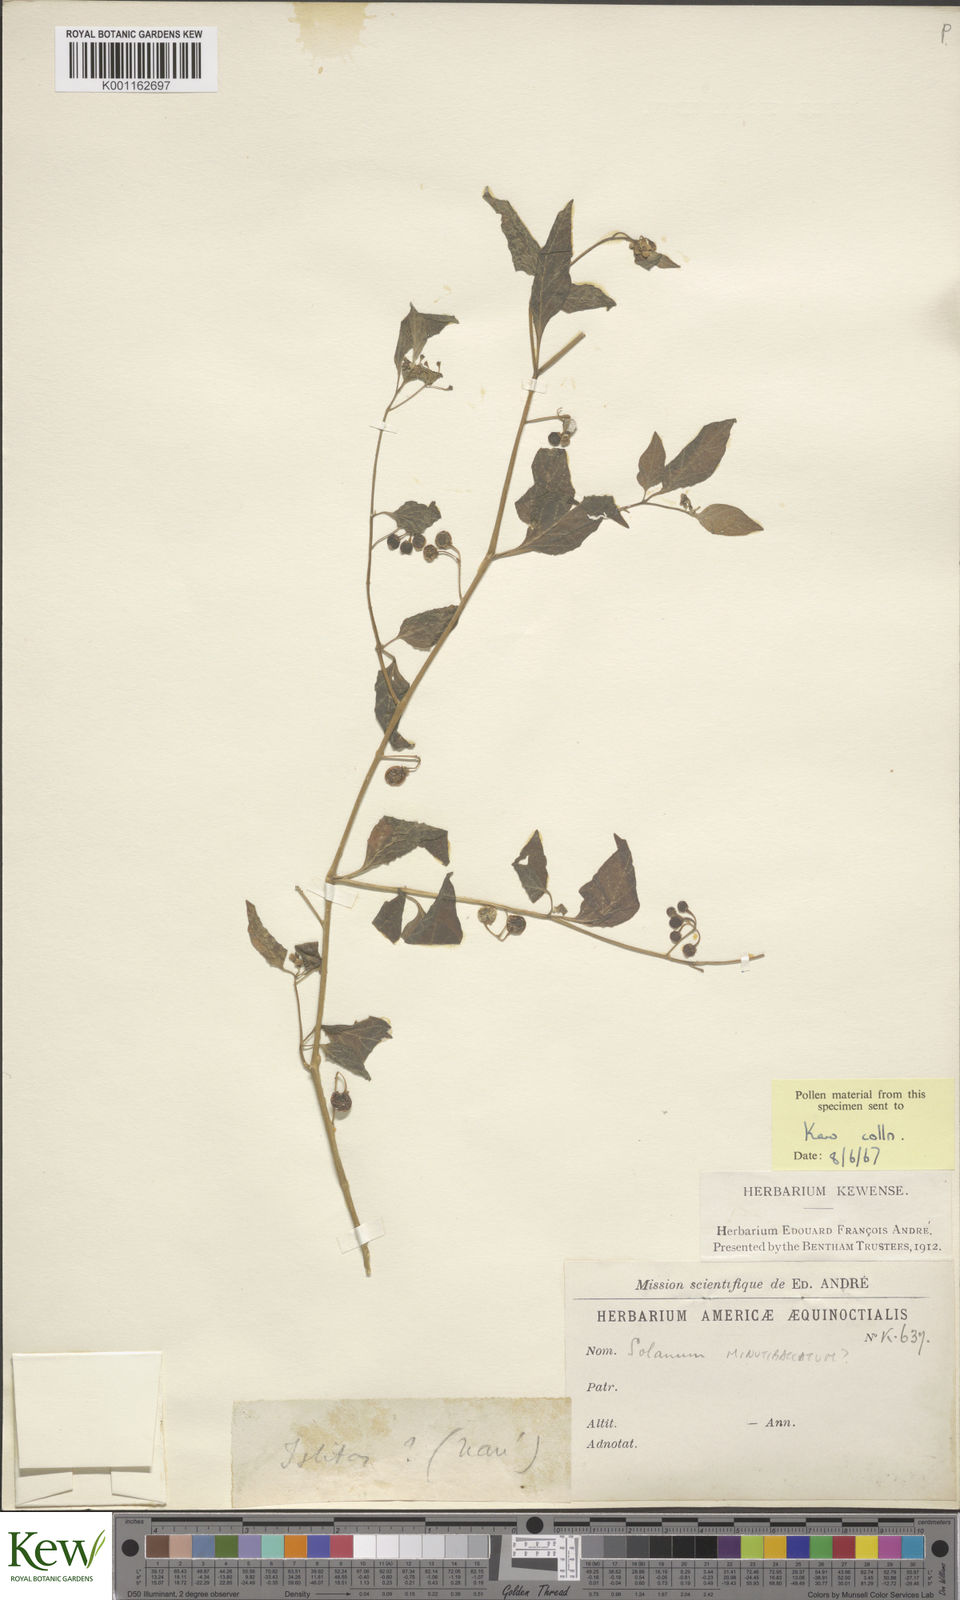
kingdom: Plantae
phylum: Tracheophyta
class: Magnoliopsida
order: Solanales
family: Solanaceae
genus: Solanum
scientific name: Solanum americanum
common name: American black nightshade
